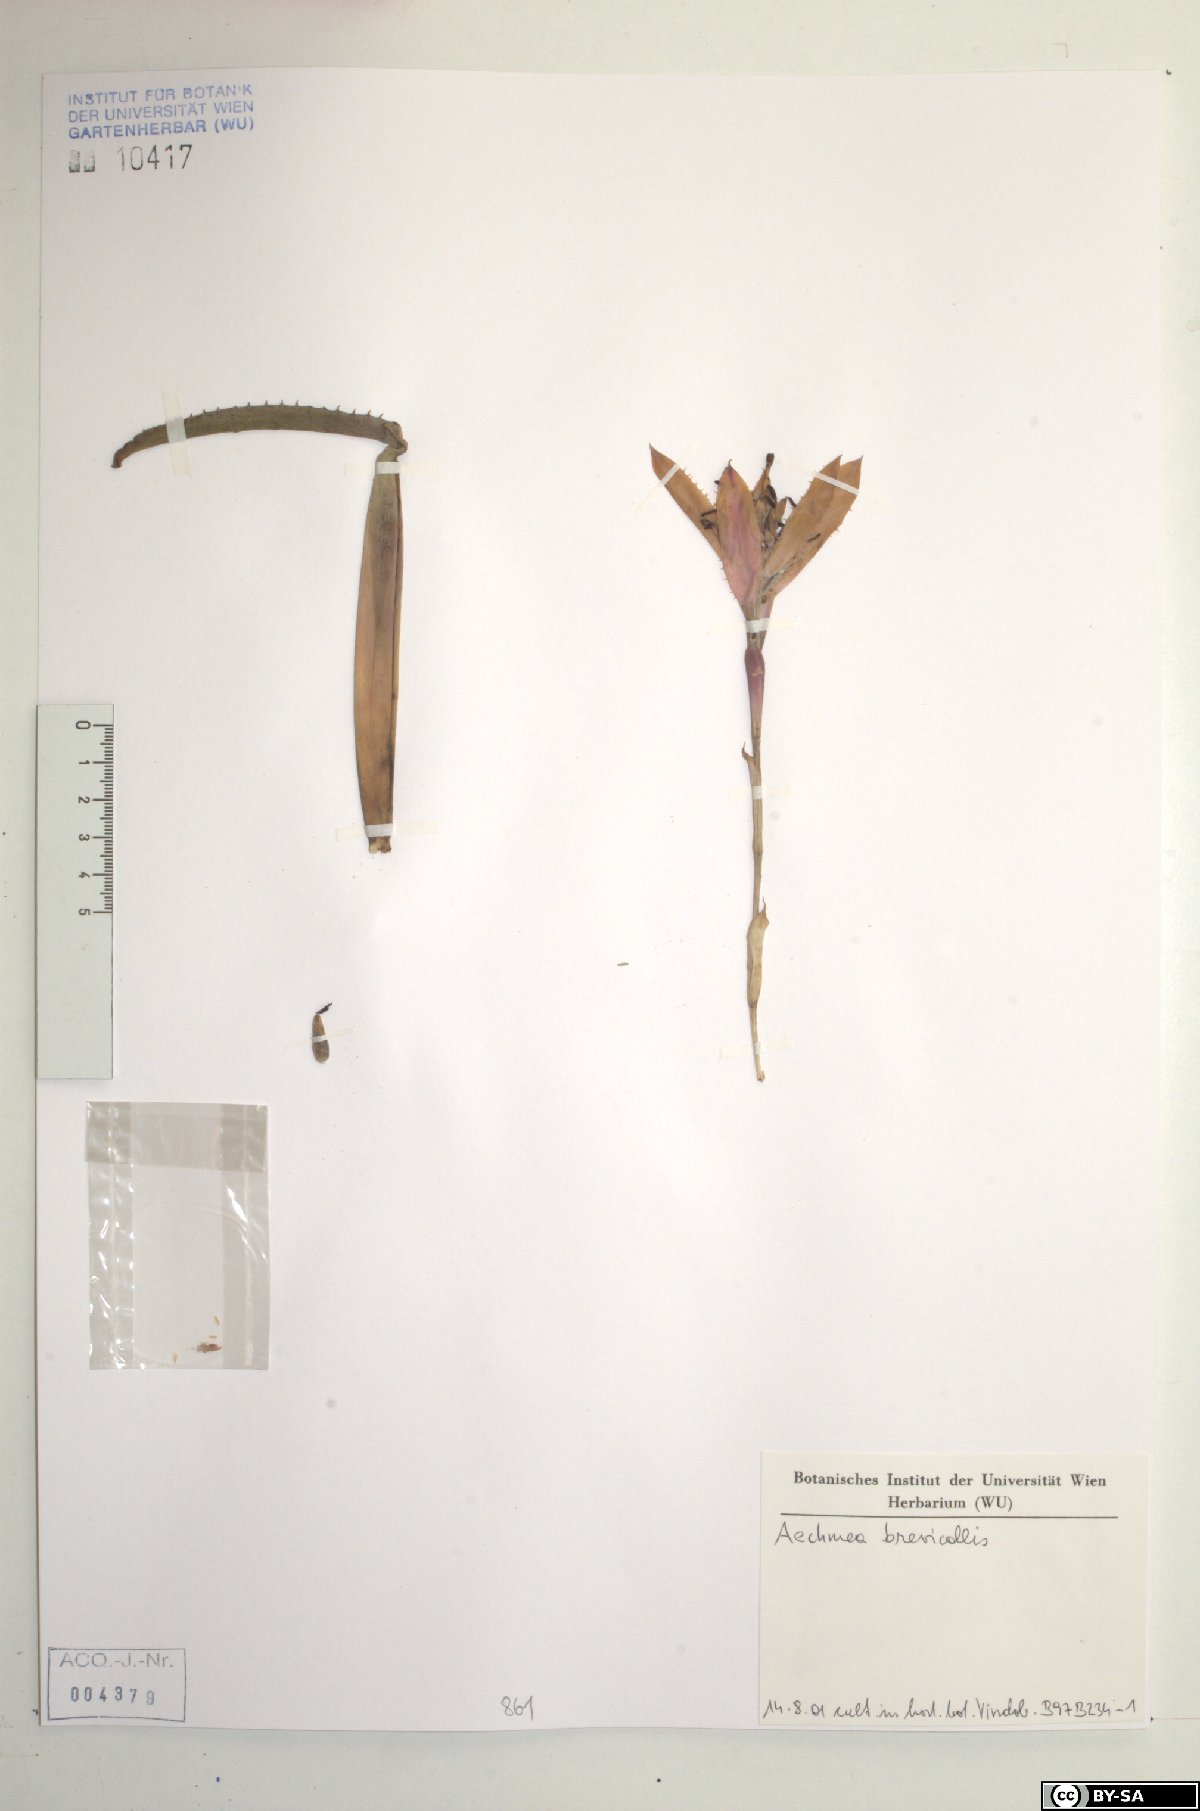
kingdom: Plantae
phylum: Tracheophyta
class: Liliopsida
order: Poales
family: Bromeliaceae
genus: Aechmea
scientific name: Aechmea
